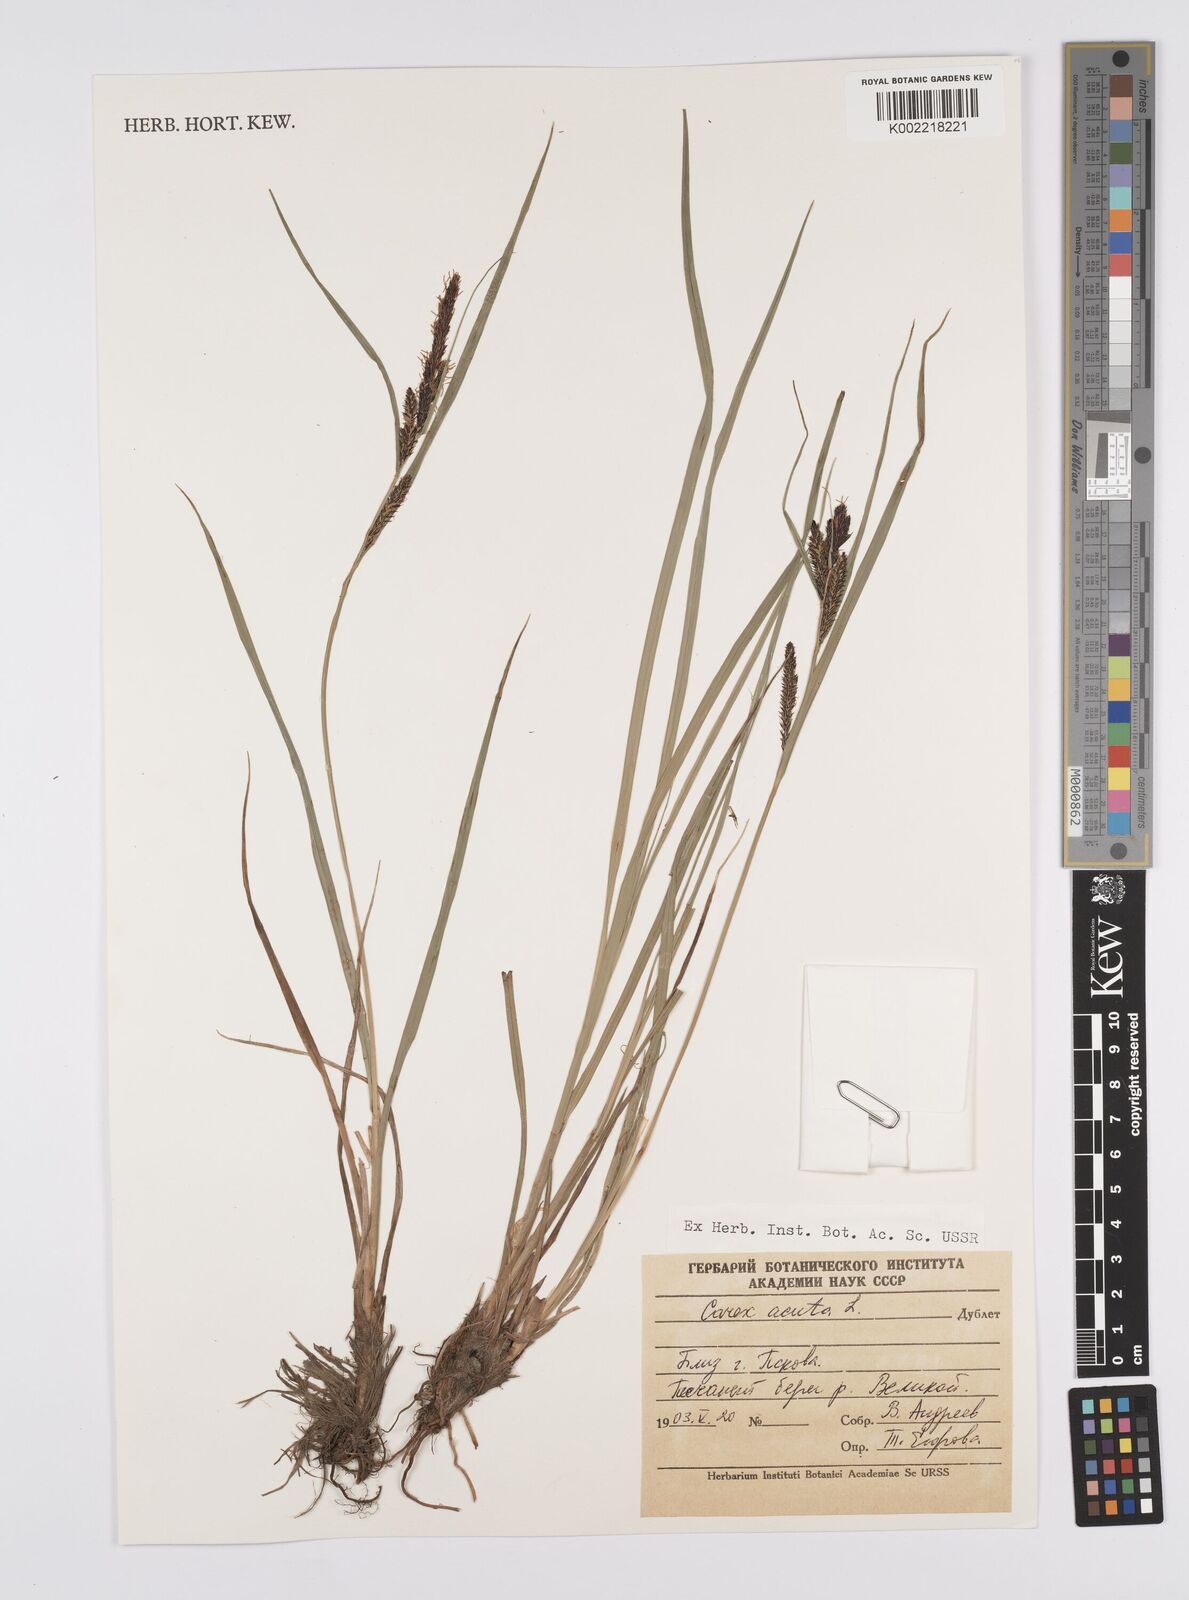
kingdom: Plantae
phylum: Tracheophyta
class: Liliopsida
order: Poales
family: Cyperaceae
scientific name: Cyperaceae
